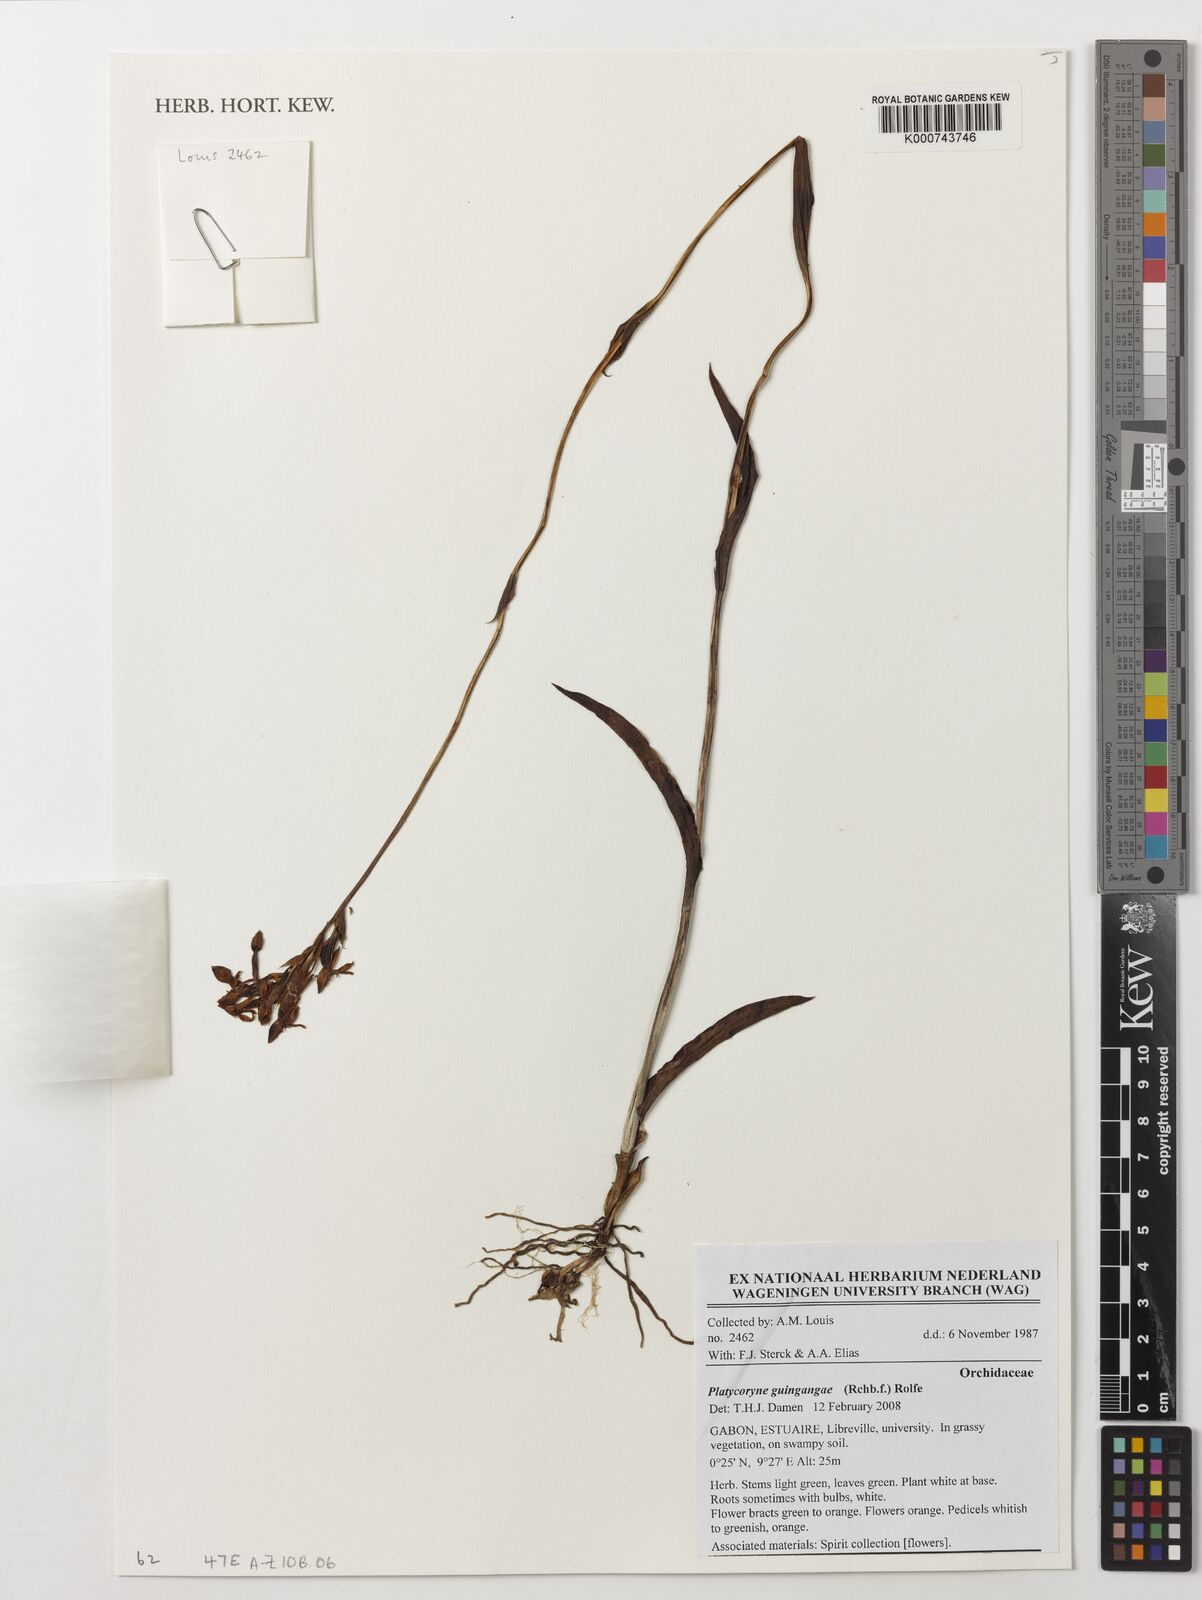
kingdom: Plantae
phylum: Tracheophyta
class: Liliopsida
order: Asparagales
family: Orchidaceae
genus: Platycoryne
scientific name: Platycoryne guingangae
